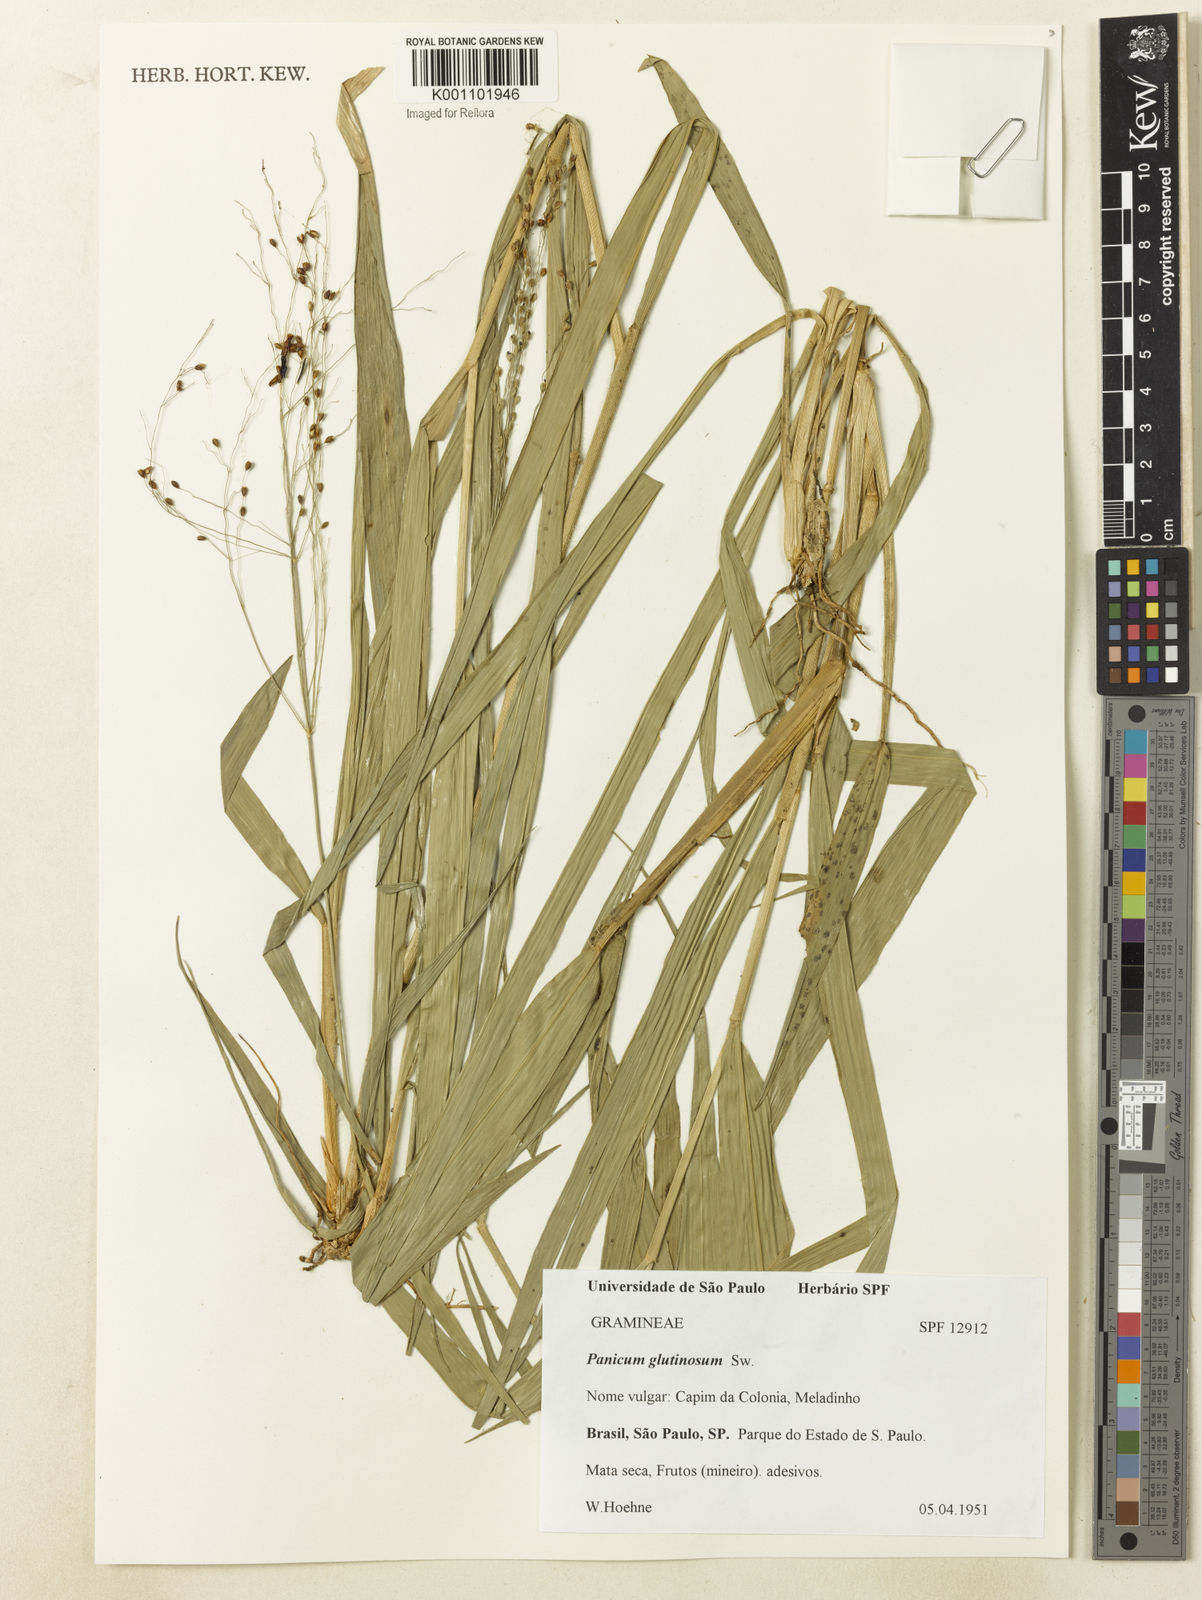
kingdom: Plantae
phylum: Tracheophyta
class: Liliopsida
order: Poales
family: Poaceae
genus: Homolepis
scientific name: Homolepis glutinosa
